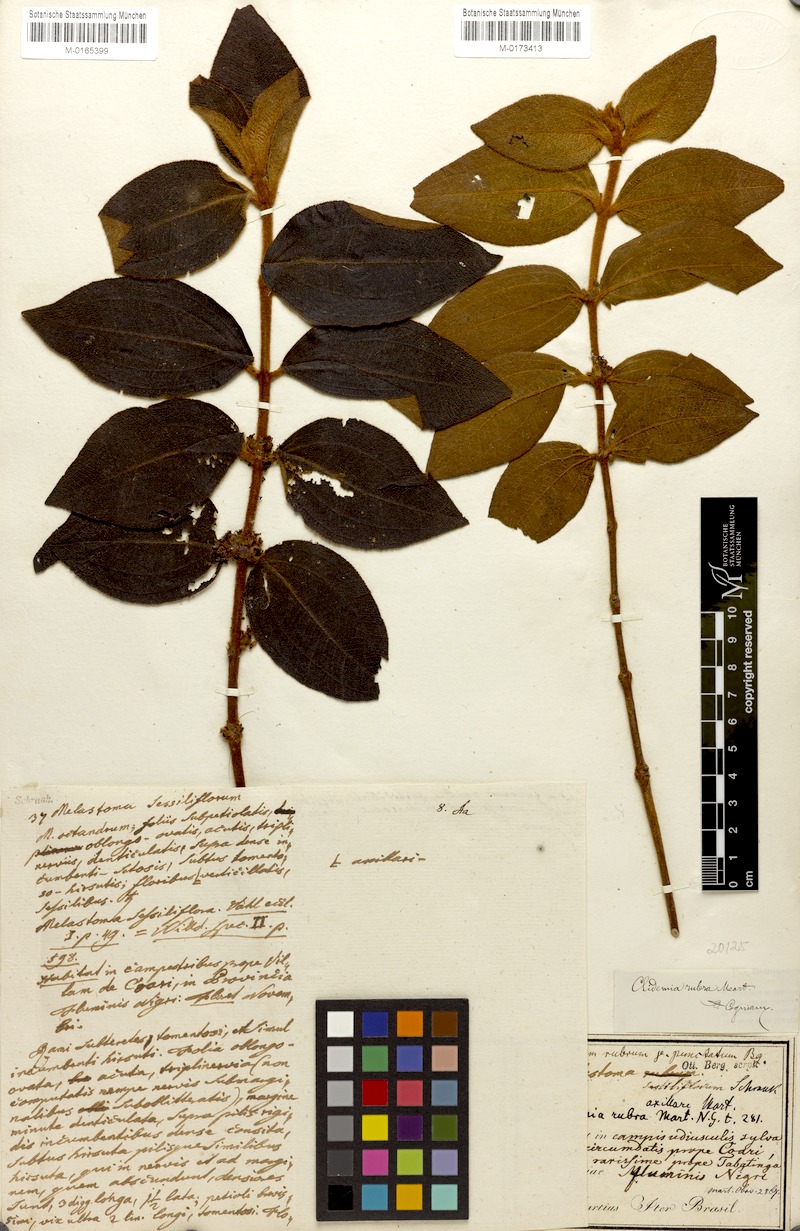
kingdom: Plantae
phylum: Tracheophyta
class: Magnoliopsida
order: Myrtales
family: Melastomataceae
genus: Miconia
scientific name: Miconia rubra
